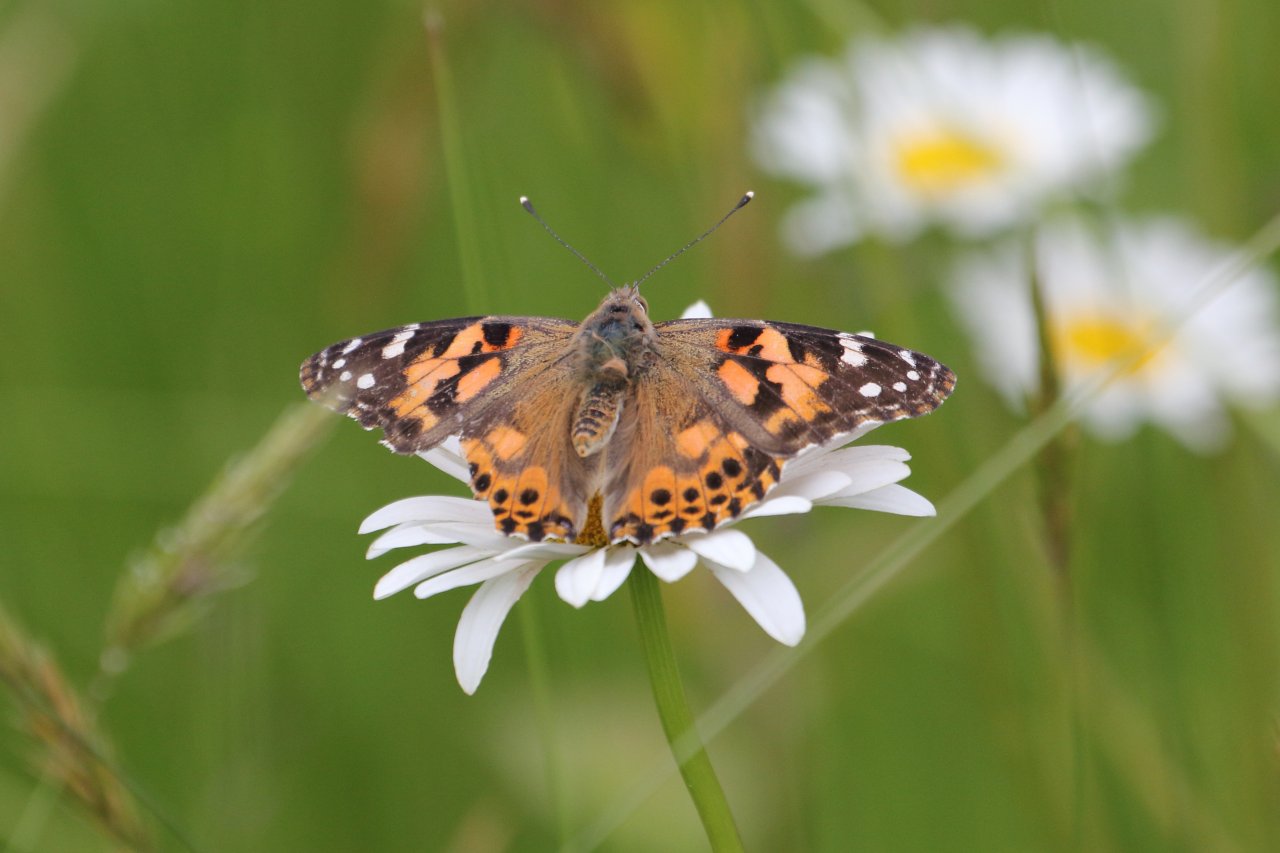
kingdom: Animalia
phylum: Arthropoda
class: Insecta
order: Lepidoptera
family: Nymphalidae
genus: Vanessa
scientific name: Vanessa cardui
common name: Painted Lady
